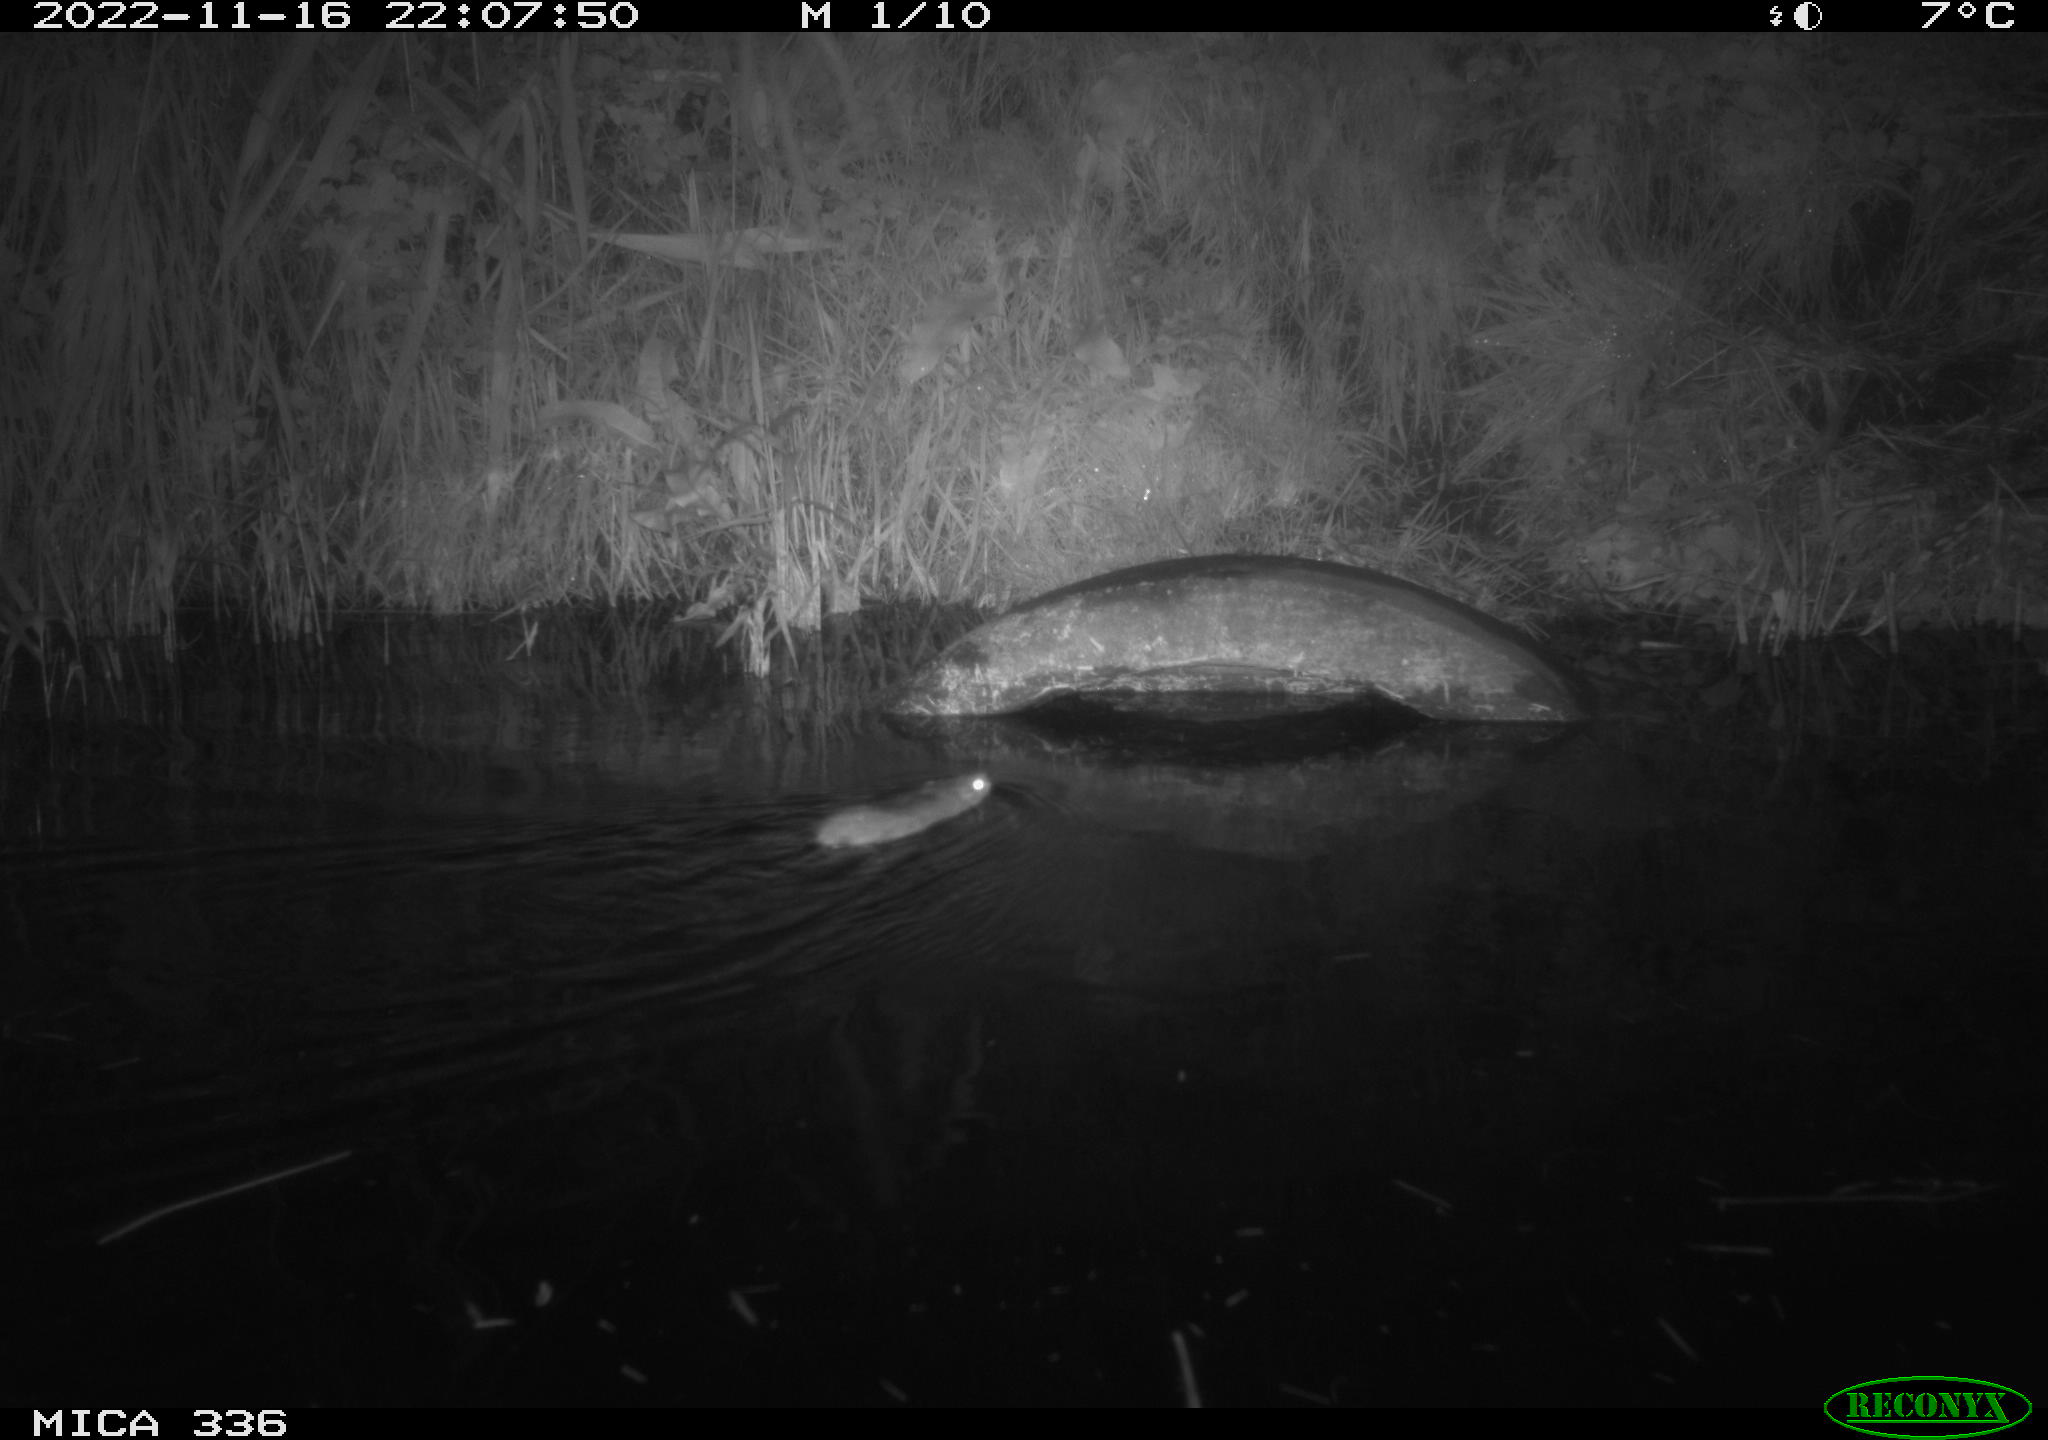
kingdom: Animalia
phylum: Chordata
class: Mammalia
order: Rodentia
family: Muridae
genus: Rattus
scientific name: Rattus norvegicus
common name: Brown rat
